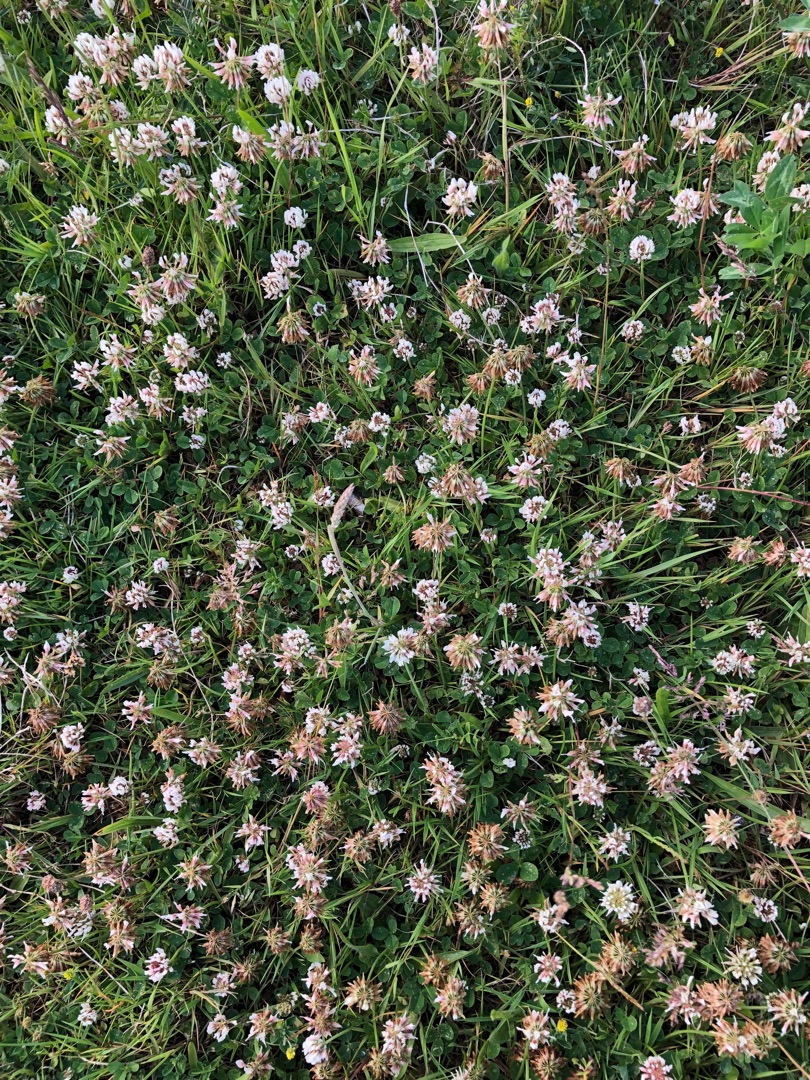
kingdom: Plantae
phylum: Tracheophyta
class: Magnoliopsida
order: Fabales
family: Fabaceae
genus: Trifolium
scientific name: Trifolium repens
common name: Hvid-kløver
